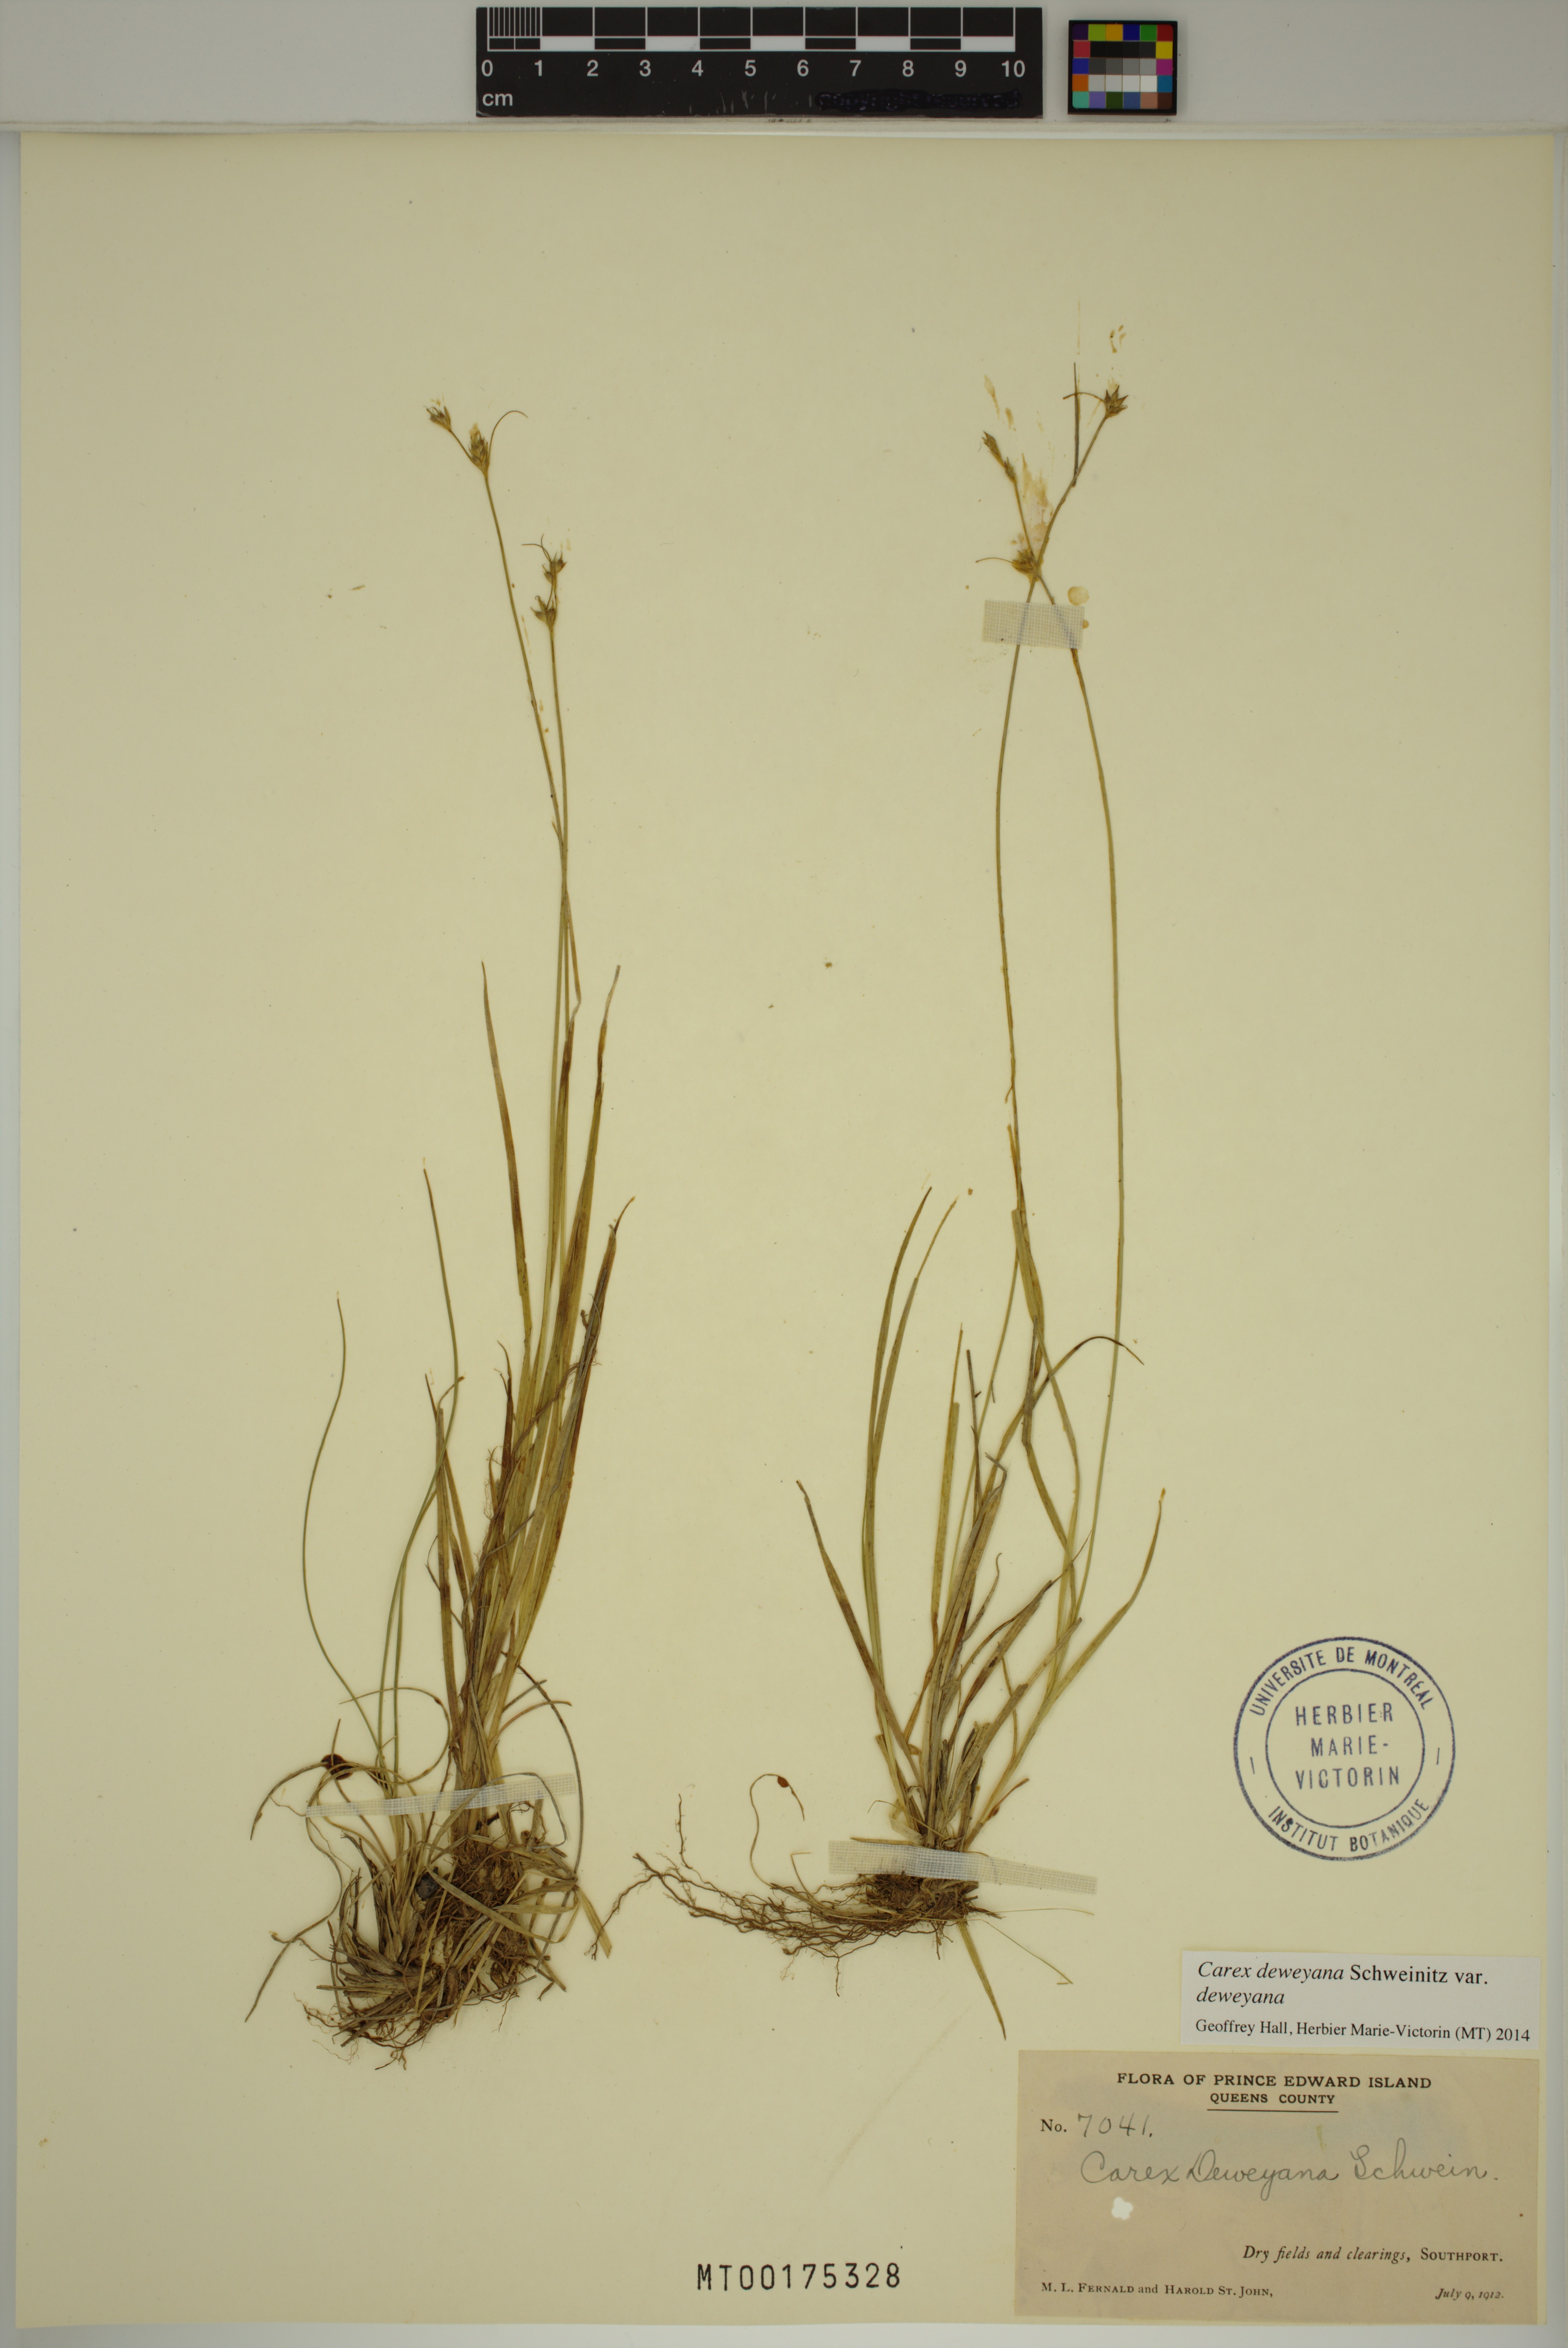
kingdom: Plantae
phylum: Tracheophyta
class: Liliopsida
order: Poales
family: Cyperaceae
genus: Carex
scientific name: Carex deweyana
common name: Dewey's sedge
